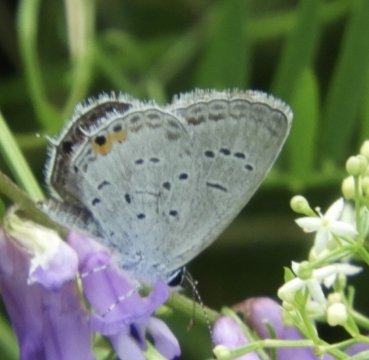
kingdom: Animalia
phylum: Arthropoda
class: Insecta
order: Lepidoptera
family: Lycaenidae
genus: Elkalyce
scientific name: Elkalyce comyntas
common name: Eastern Tailed-Blue
